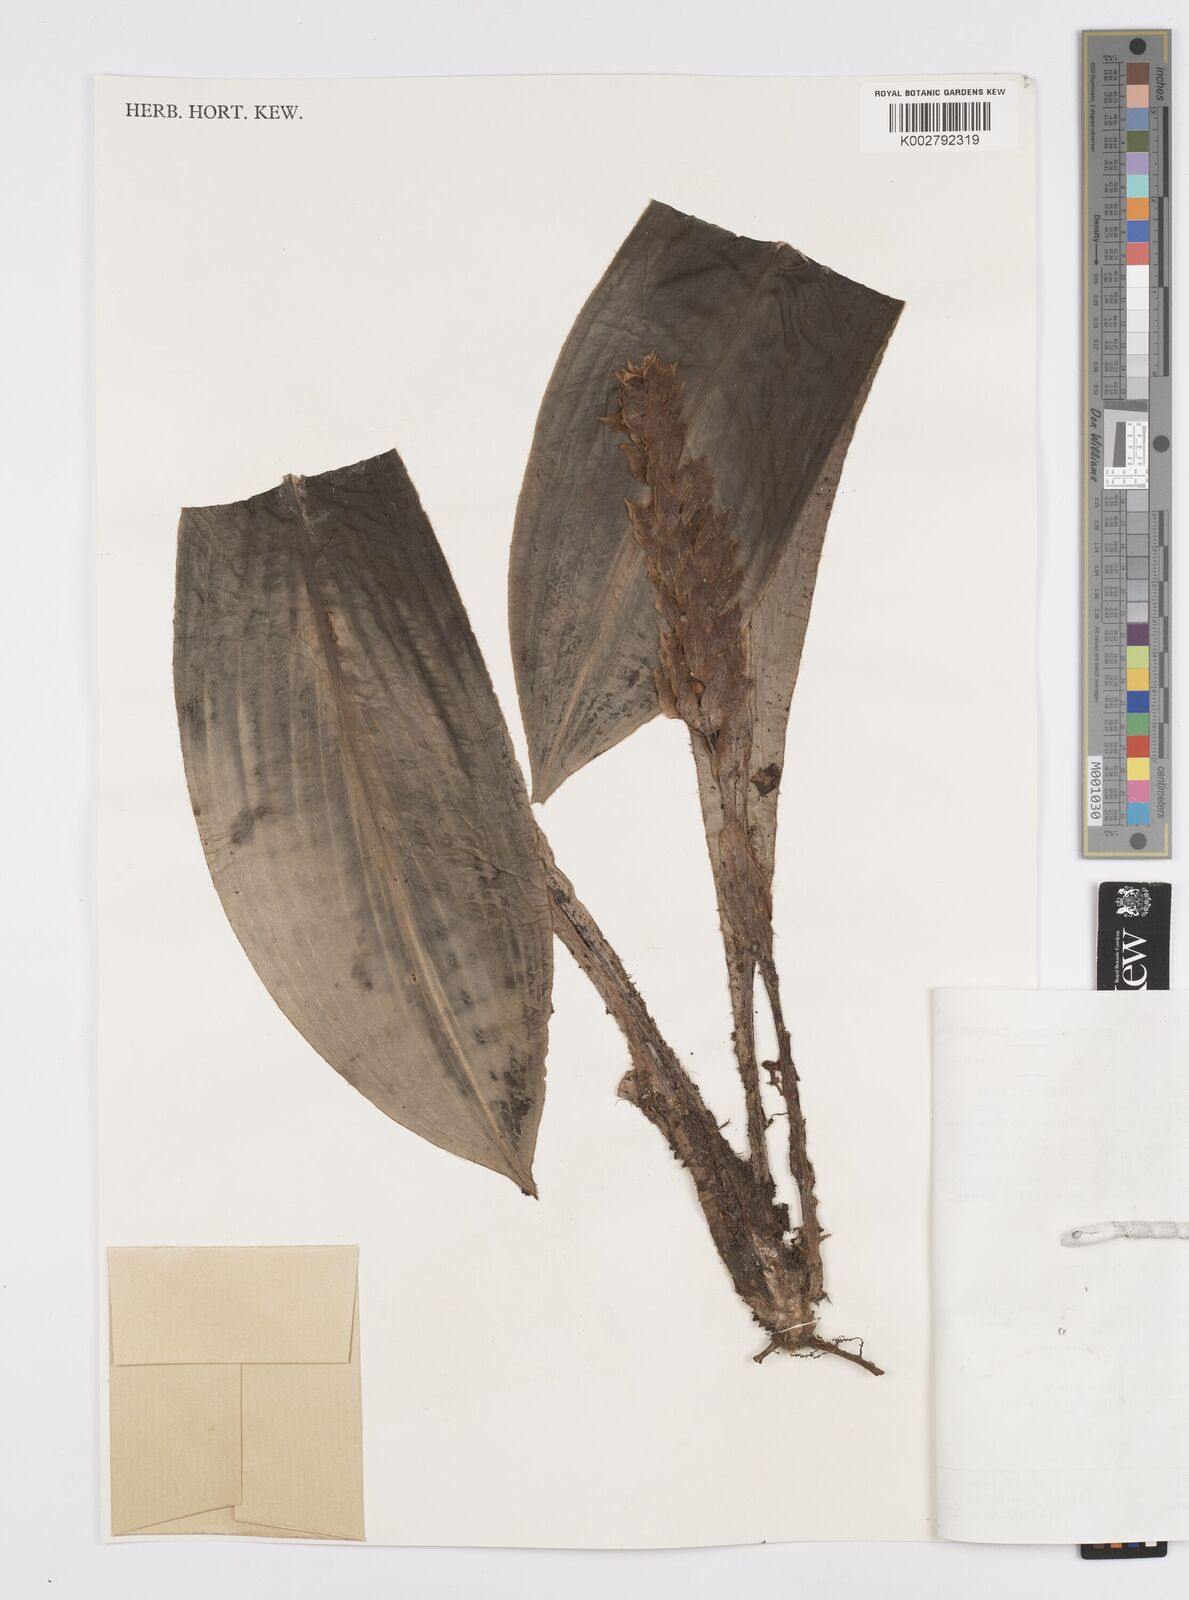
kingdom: Plantae
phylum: Tracheophyta
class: Liliopsida
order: Commelinales
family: Commelinaceae
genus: Palisota
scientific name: Palisota bracteosa
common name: Palisota
